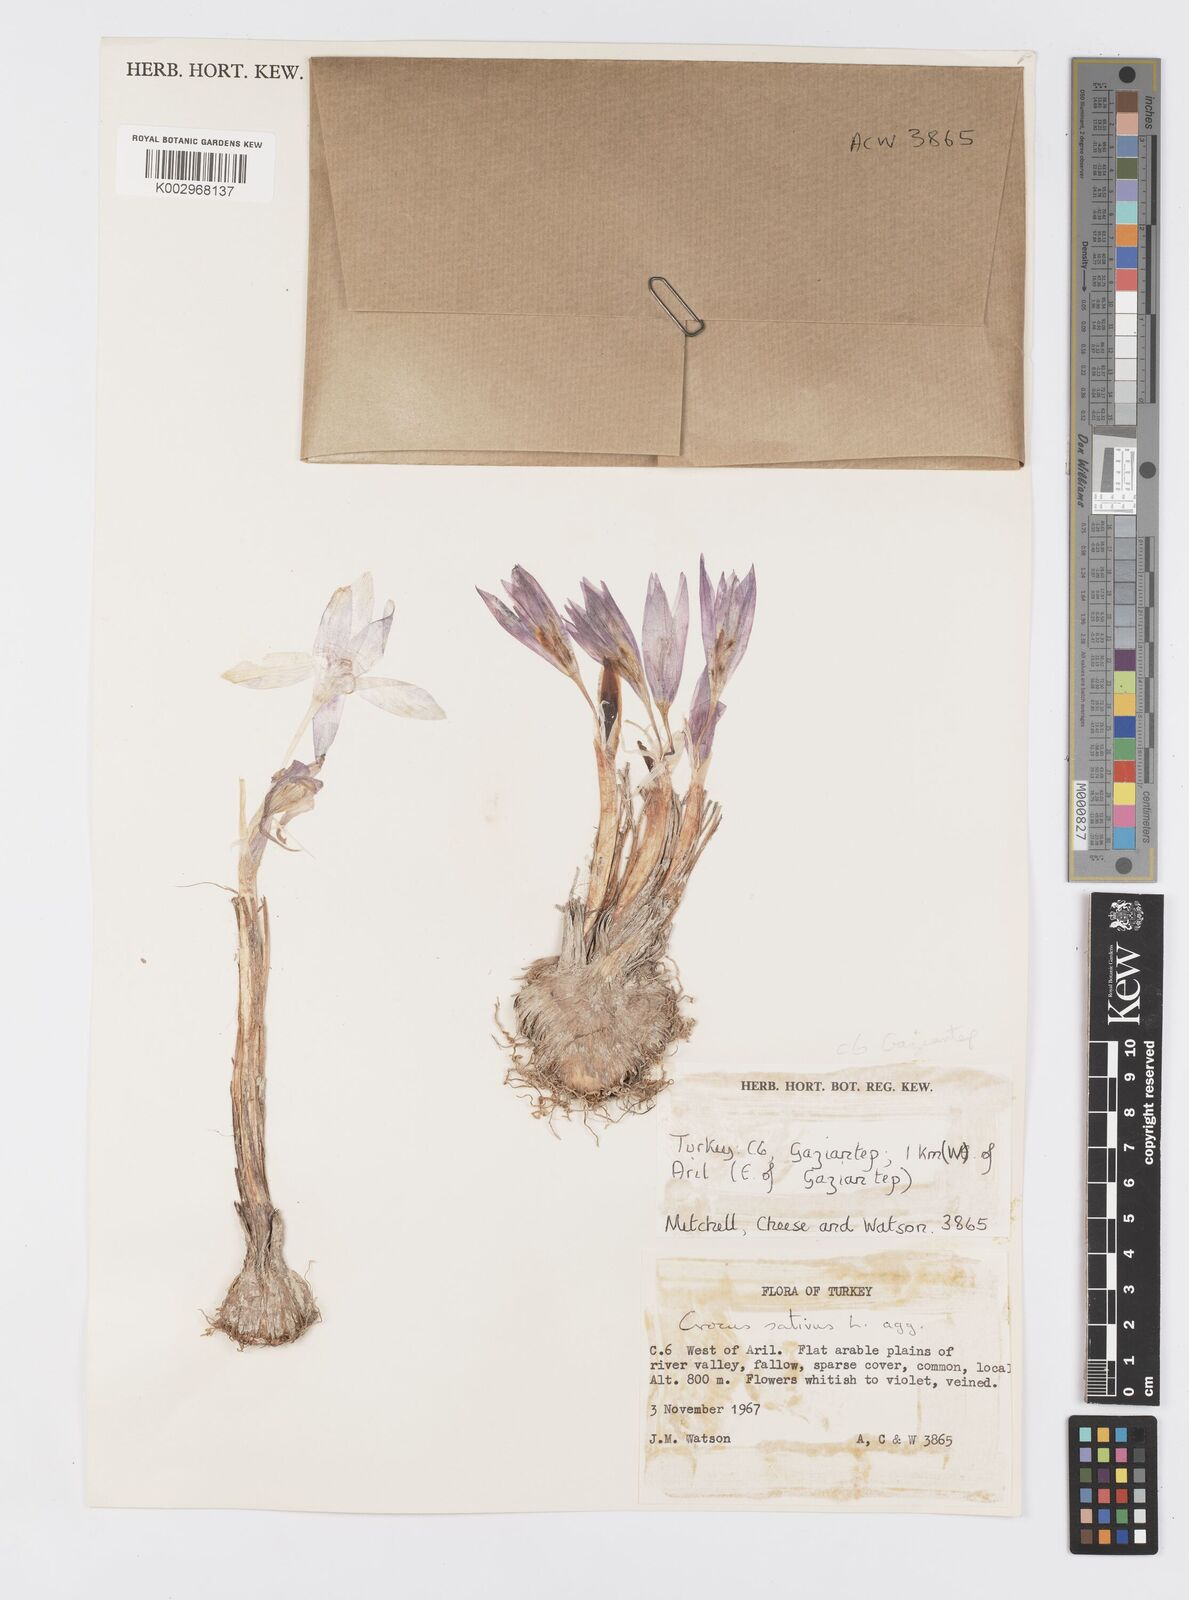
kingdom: Plantae
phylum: Tracheophyta
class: Liliopsida
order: Asparagales
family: Iridaceae
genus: Crocus
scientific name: Crocus turcicus
